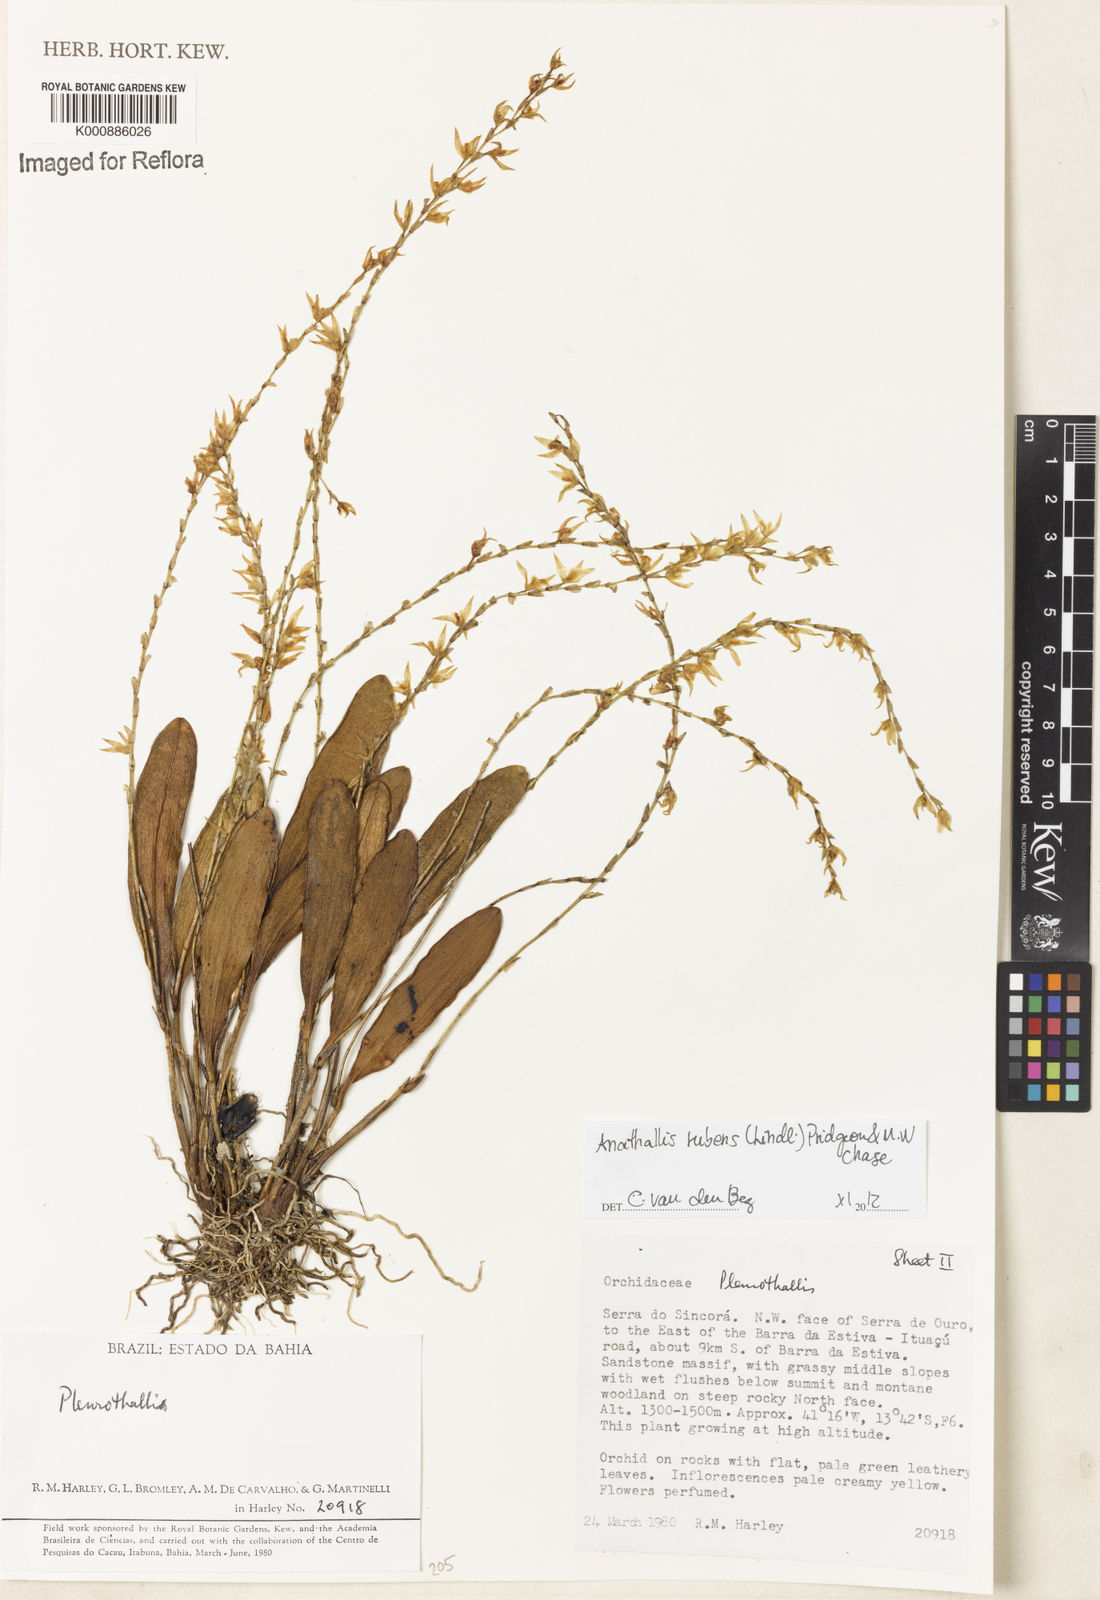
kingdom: Plantae
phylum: Tracheophyta
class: Liliopsida
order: Asparagales
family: Orchidaceae
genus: Stelis
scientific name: Stelis montserratii
